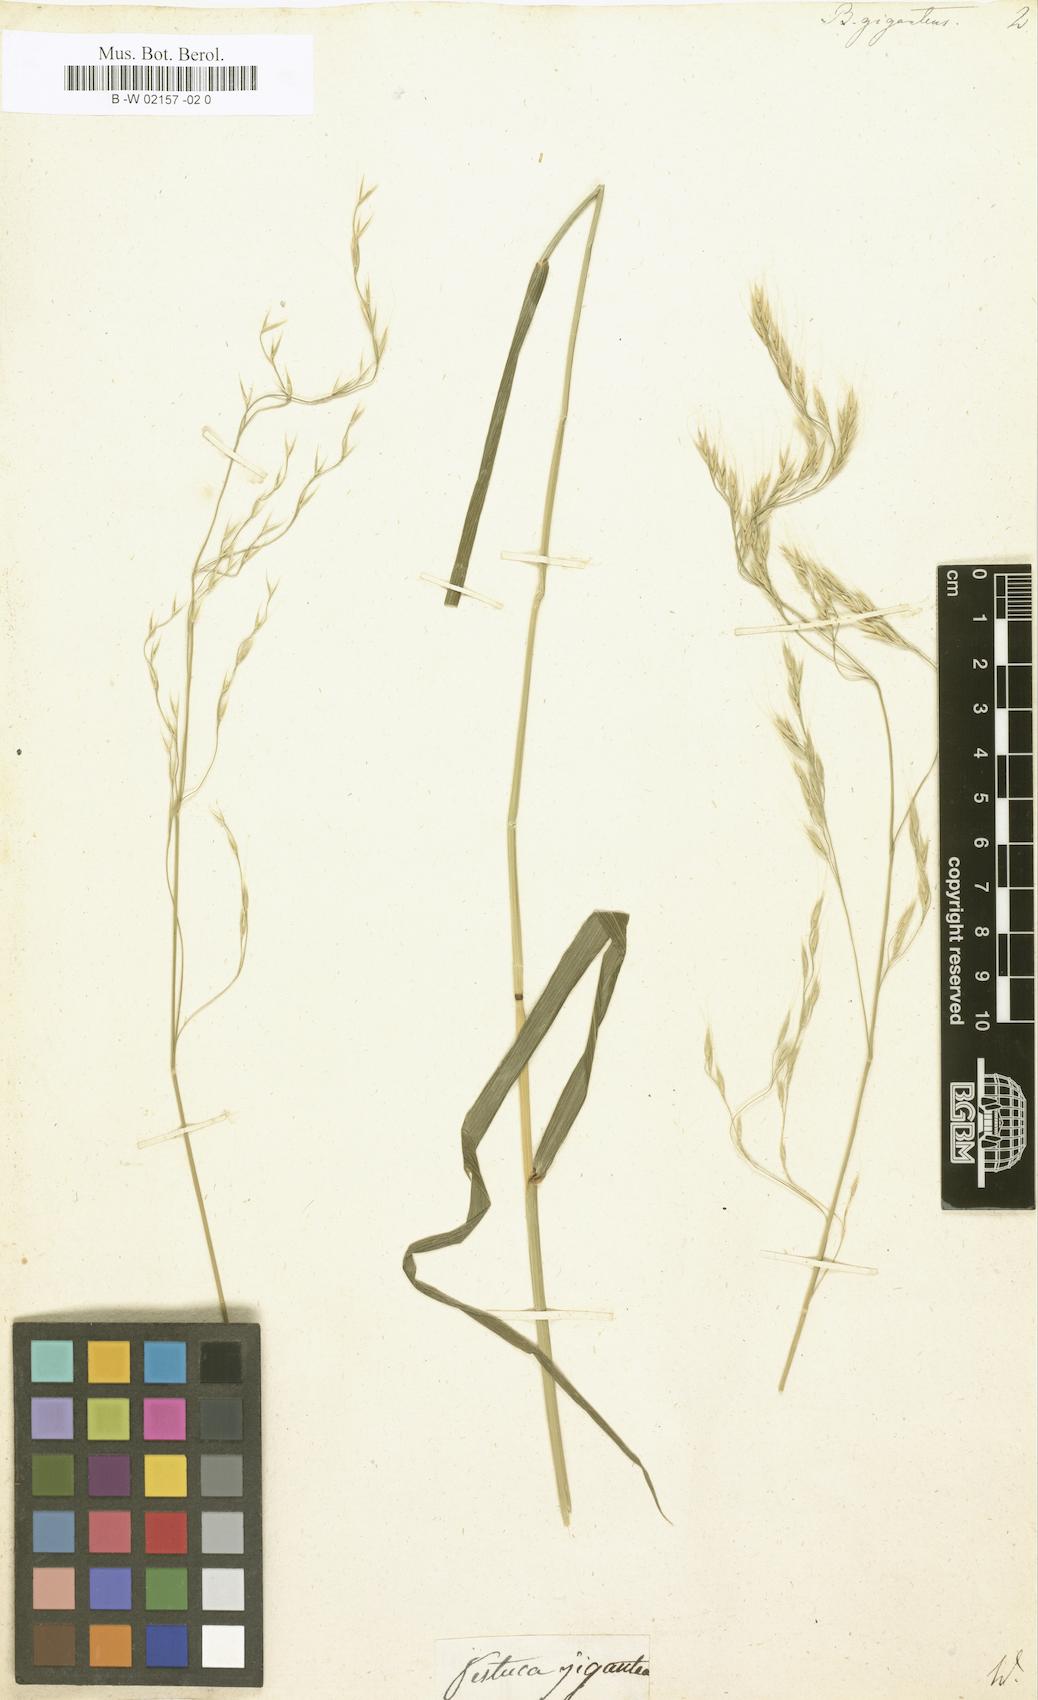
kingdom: Plantae
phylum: Tracheophyta
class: Liliopsida
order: Poales
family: Poaceae
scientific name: Poaceae
